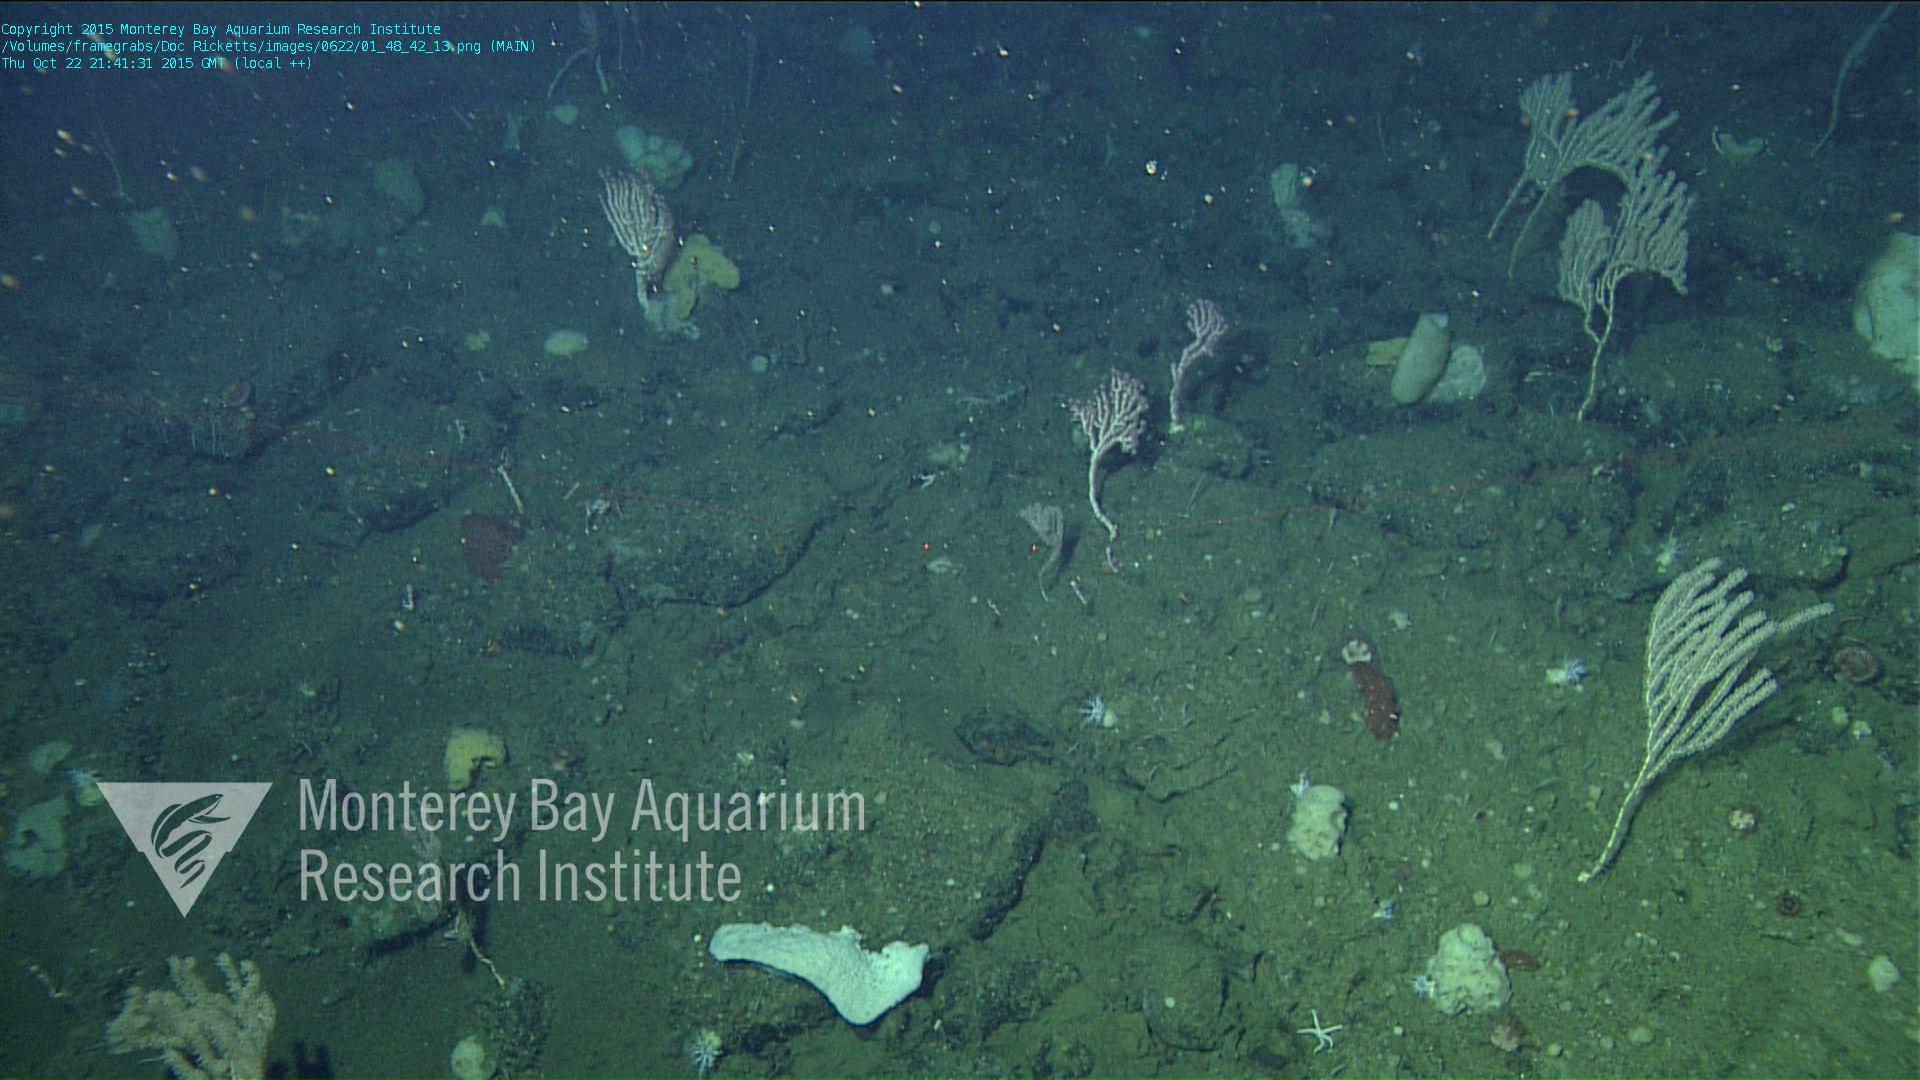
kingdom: Animalia
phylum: Cnidaria
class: Anthozoa
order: Scleralcyonacea
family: Coralliidae
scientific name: Coralliidae
